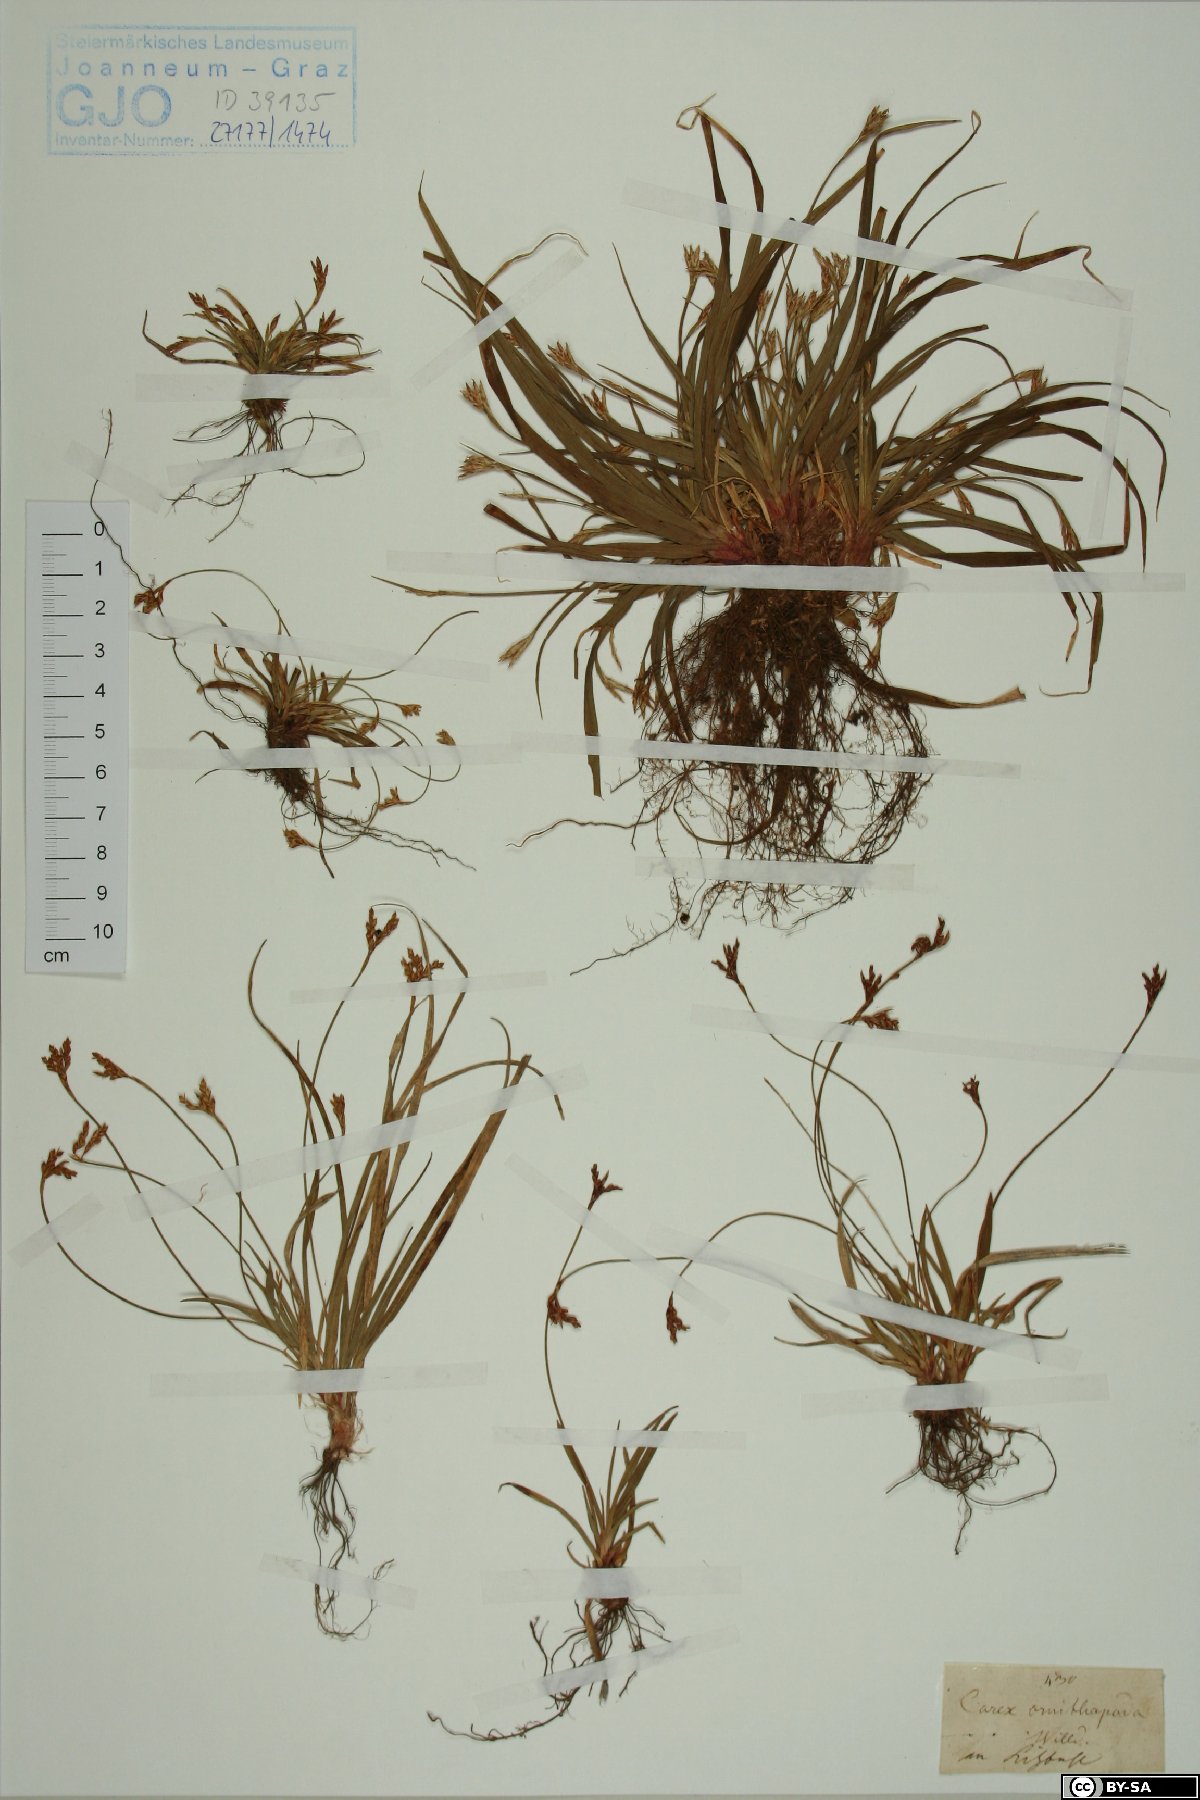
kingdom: Plantae
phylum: Tracheophyta
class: Liliopsida
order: Poales
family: Cyperaceae
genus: Carex
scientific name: Carex ornithopoda
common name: Bird's-foot sedge
